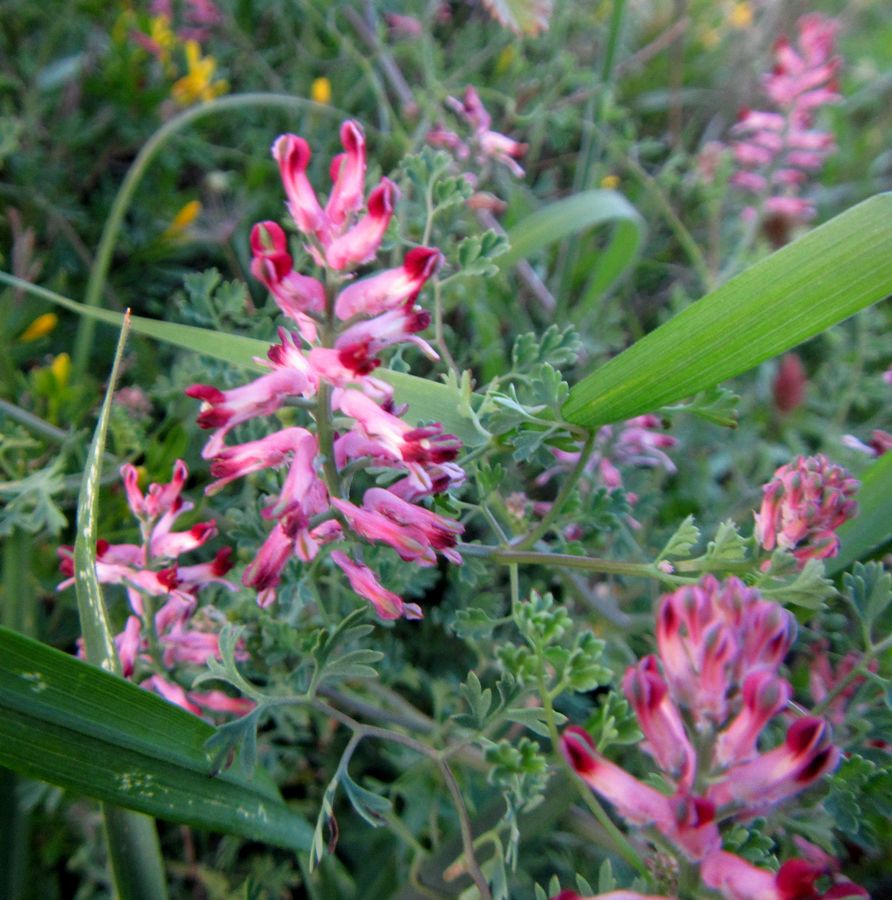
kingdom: Plantae
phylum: Tracheophyta
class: Magnoliopsida
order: Ranunculales
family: Papaveraceae
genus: Fumaria
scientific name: Fumaria officinalis
